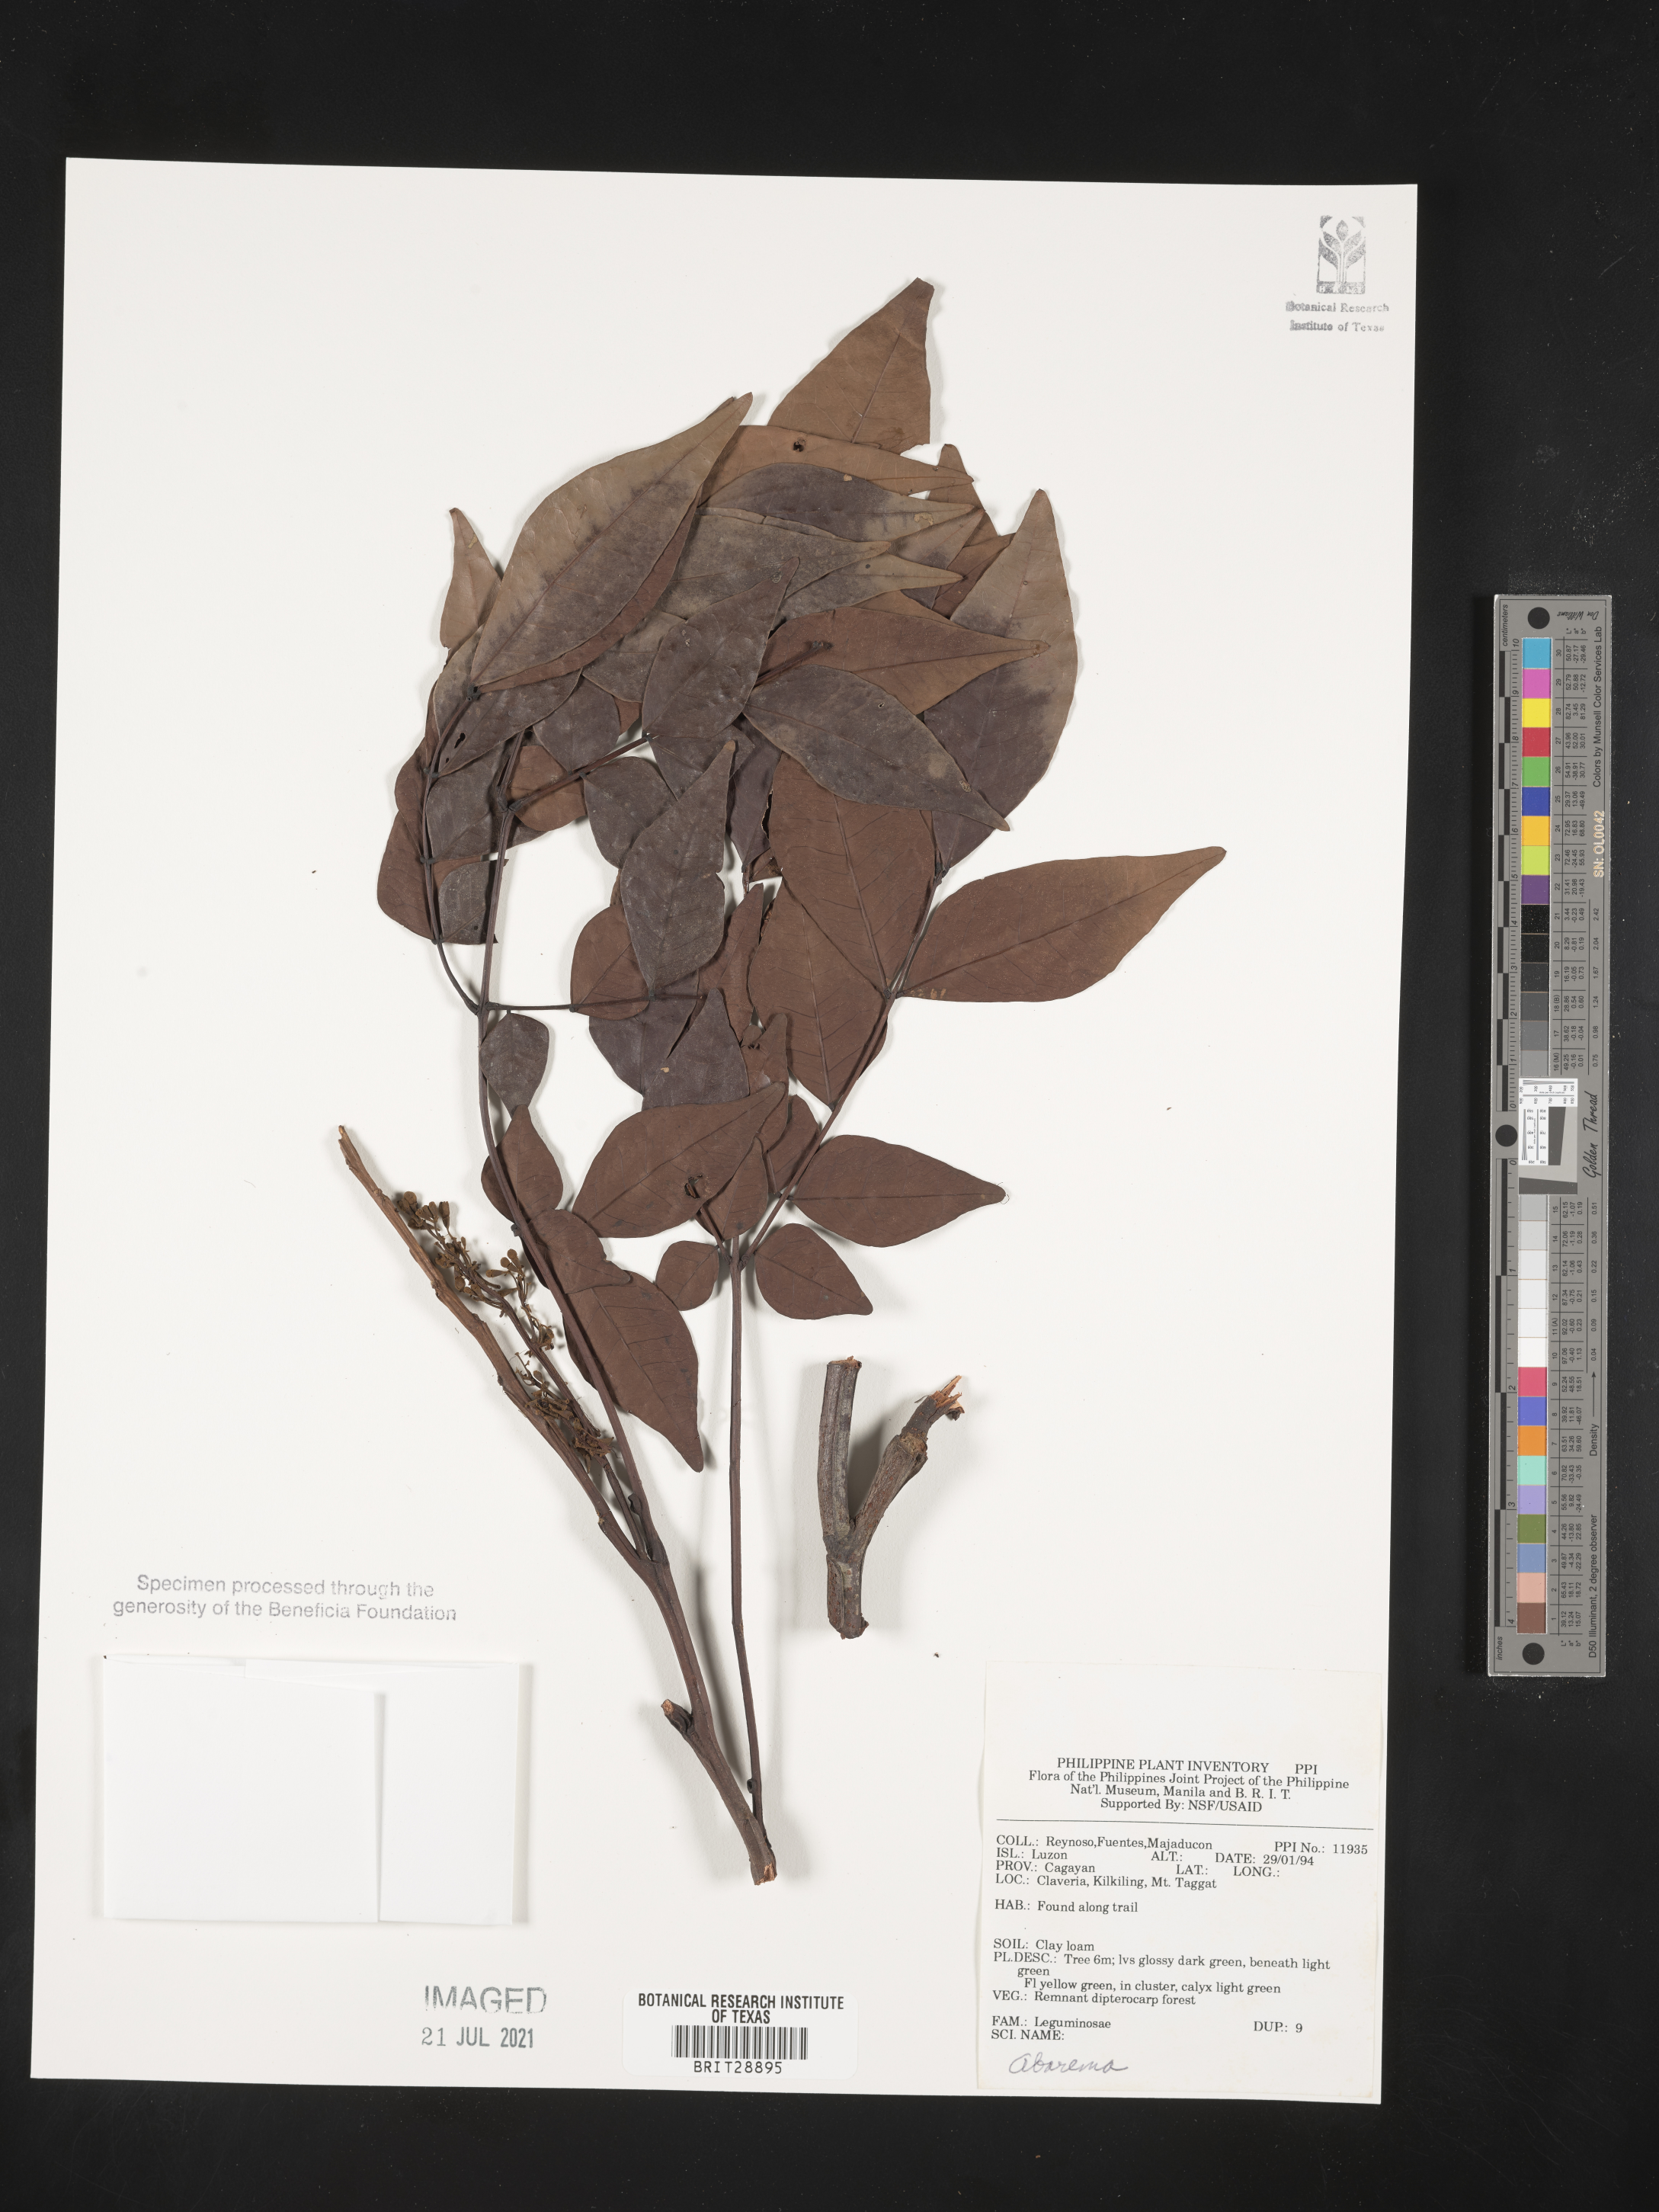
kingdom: Plantae
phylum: Tracheophyta
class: Magnoliopsida
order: Fabales
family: Fabaceae
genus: Abarema
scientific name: Abarema
